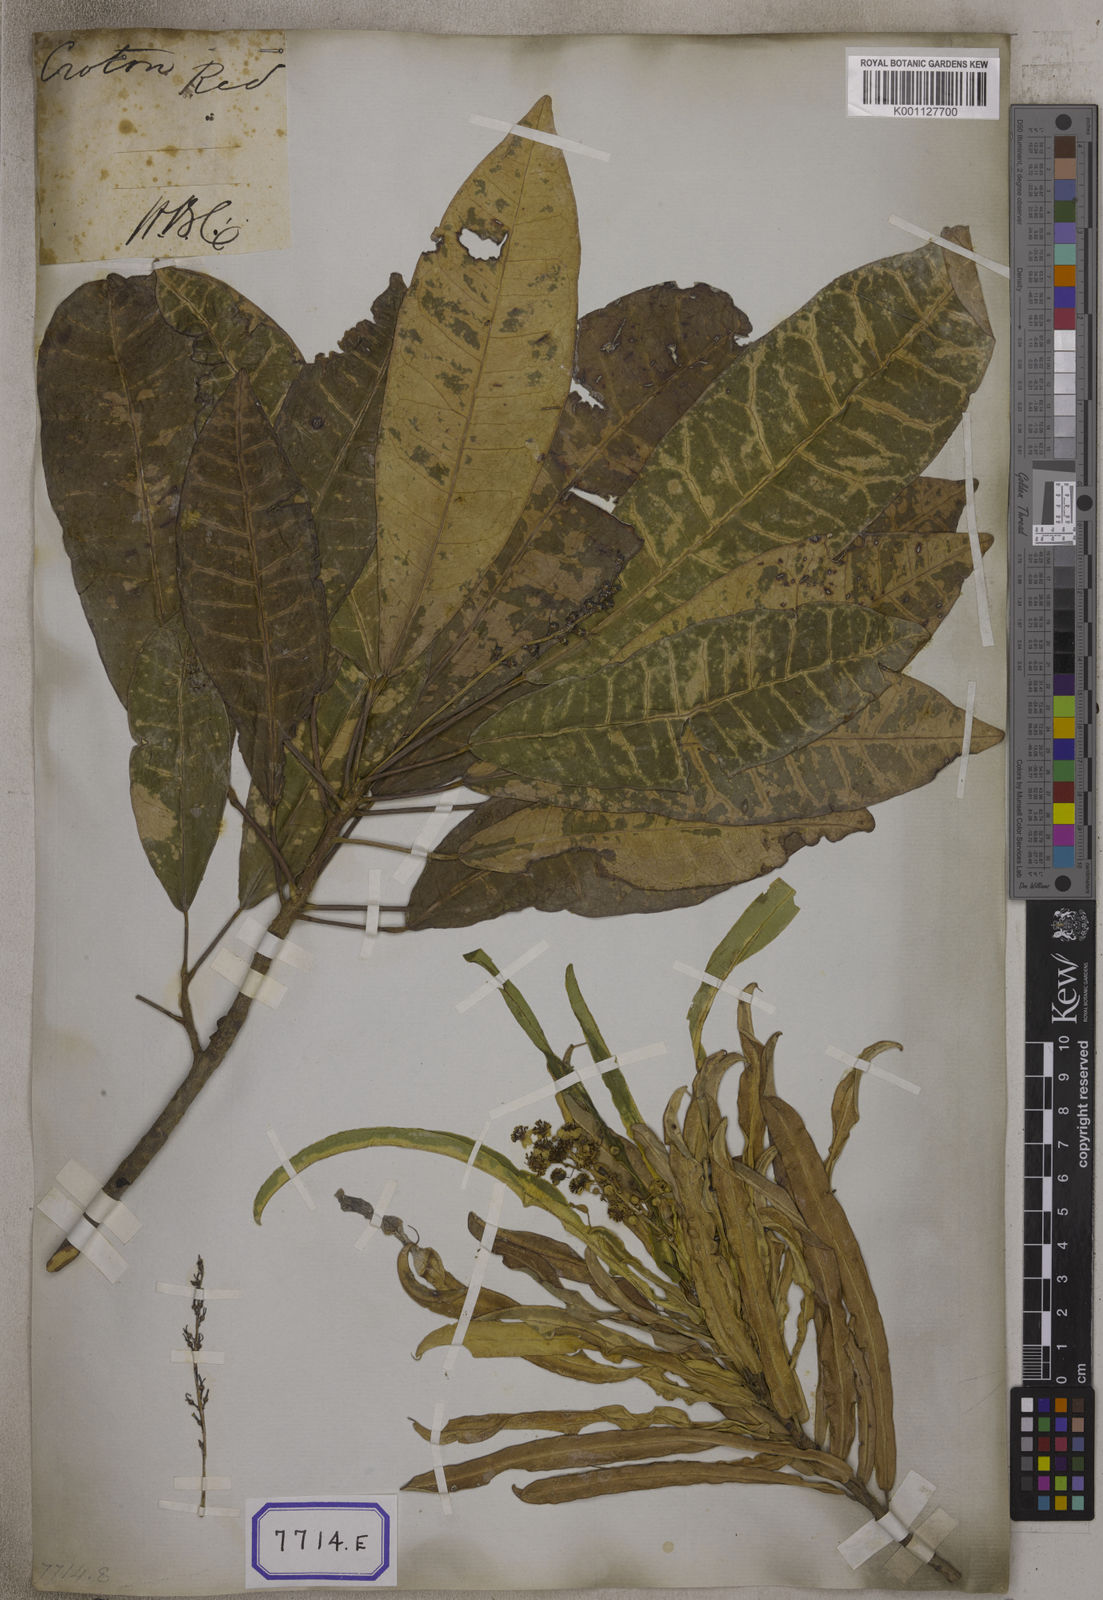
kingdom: Plantae
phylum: Tracheophyta
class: Magnoliopsida
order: Malpighiales
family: Euphorbiaceae
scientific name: Euphorbiaceae
